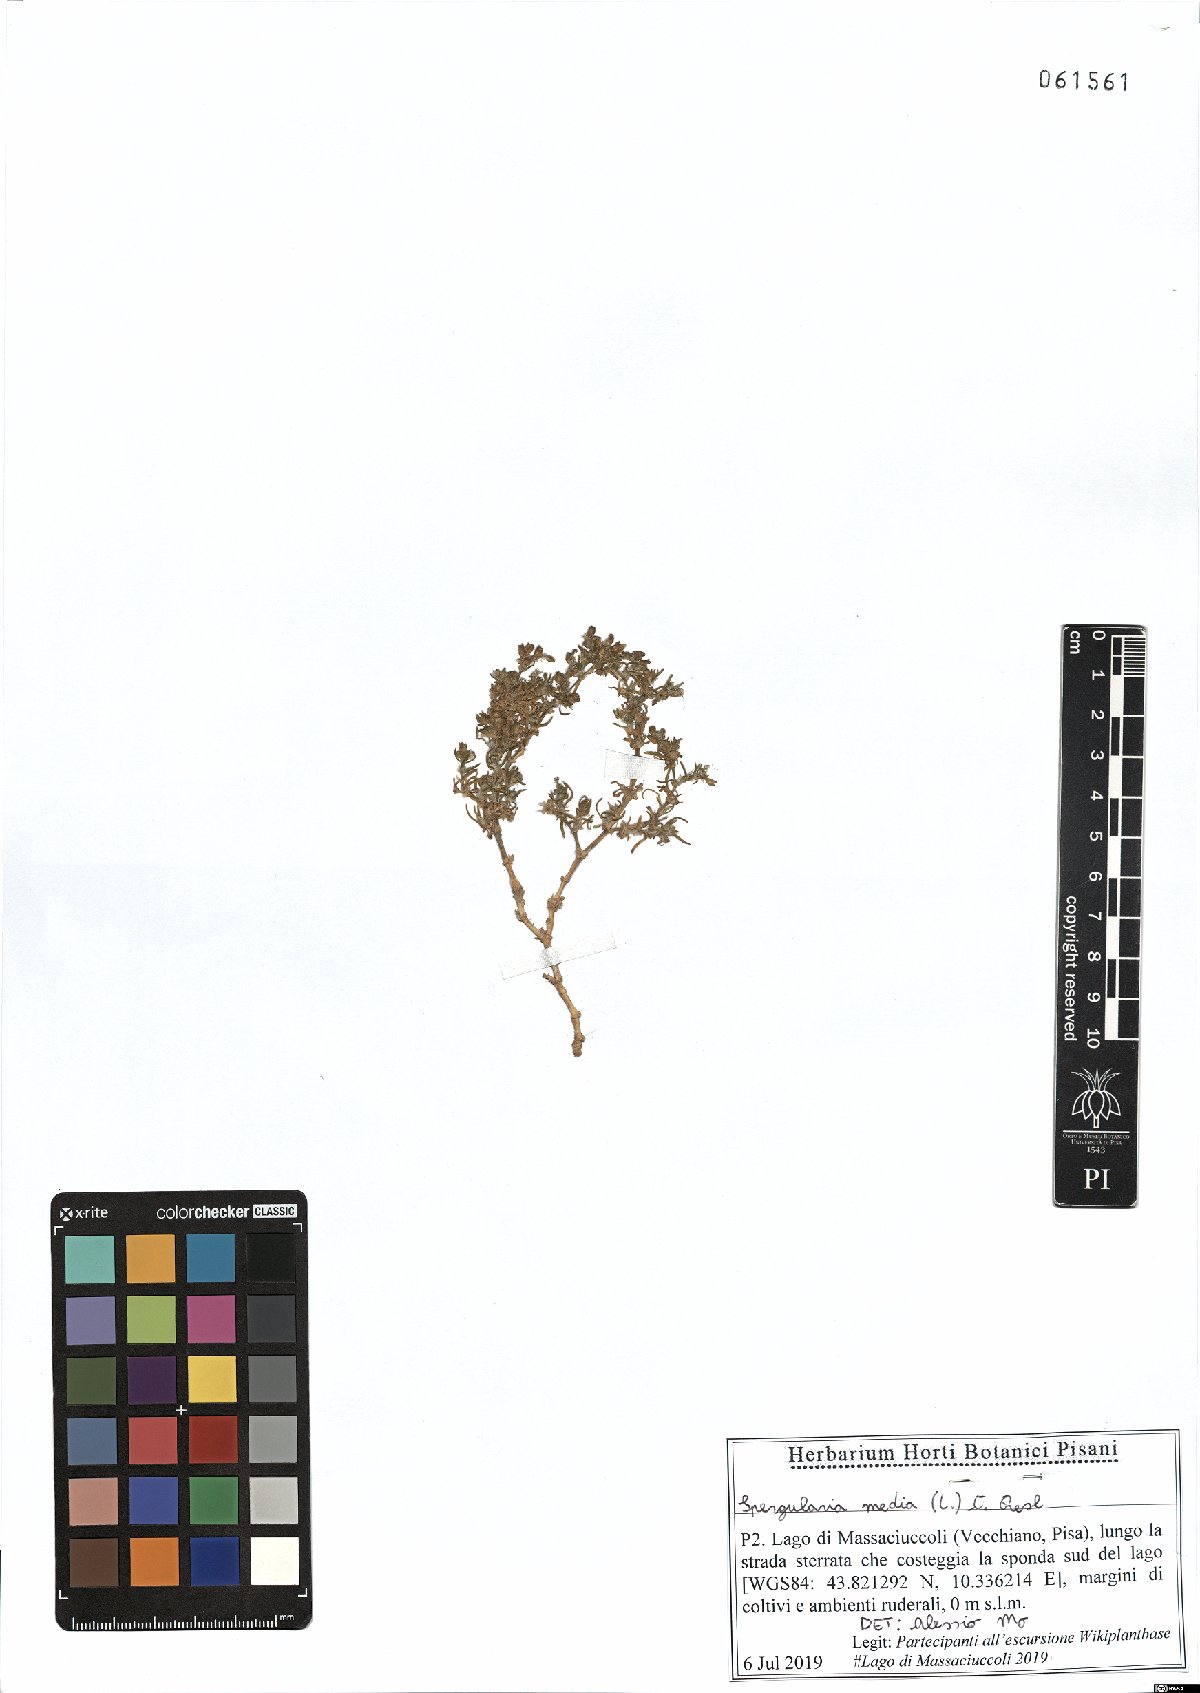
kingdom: Plantae
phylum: Tracheophyta
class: Magnoliopsida
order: Caryophyllales
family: Caryophyllaceae
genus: Spergularia
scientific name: Spergularia media
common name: Greater sea-spurrey
